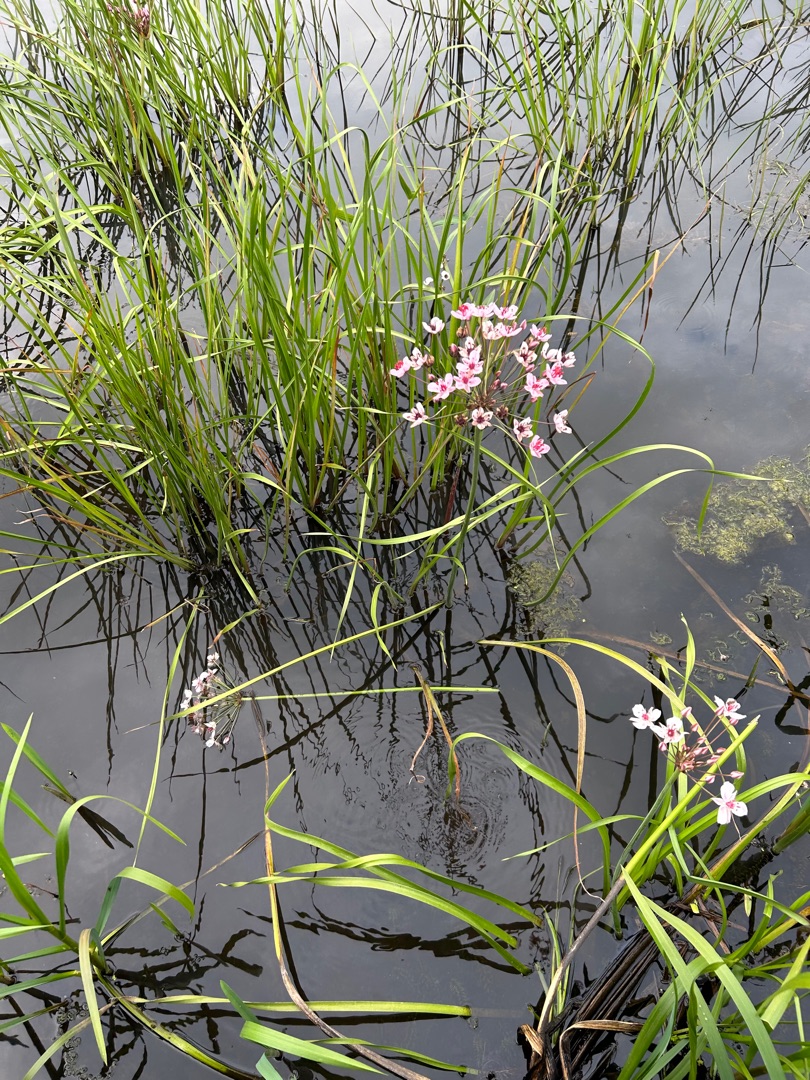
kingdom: Plantae
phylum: Tracheophyta
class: Liliopsida
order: Alismatales
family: Butomaceae
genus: Butomus
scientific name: Butomus umbellatus
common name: Brudelys
